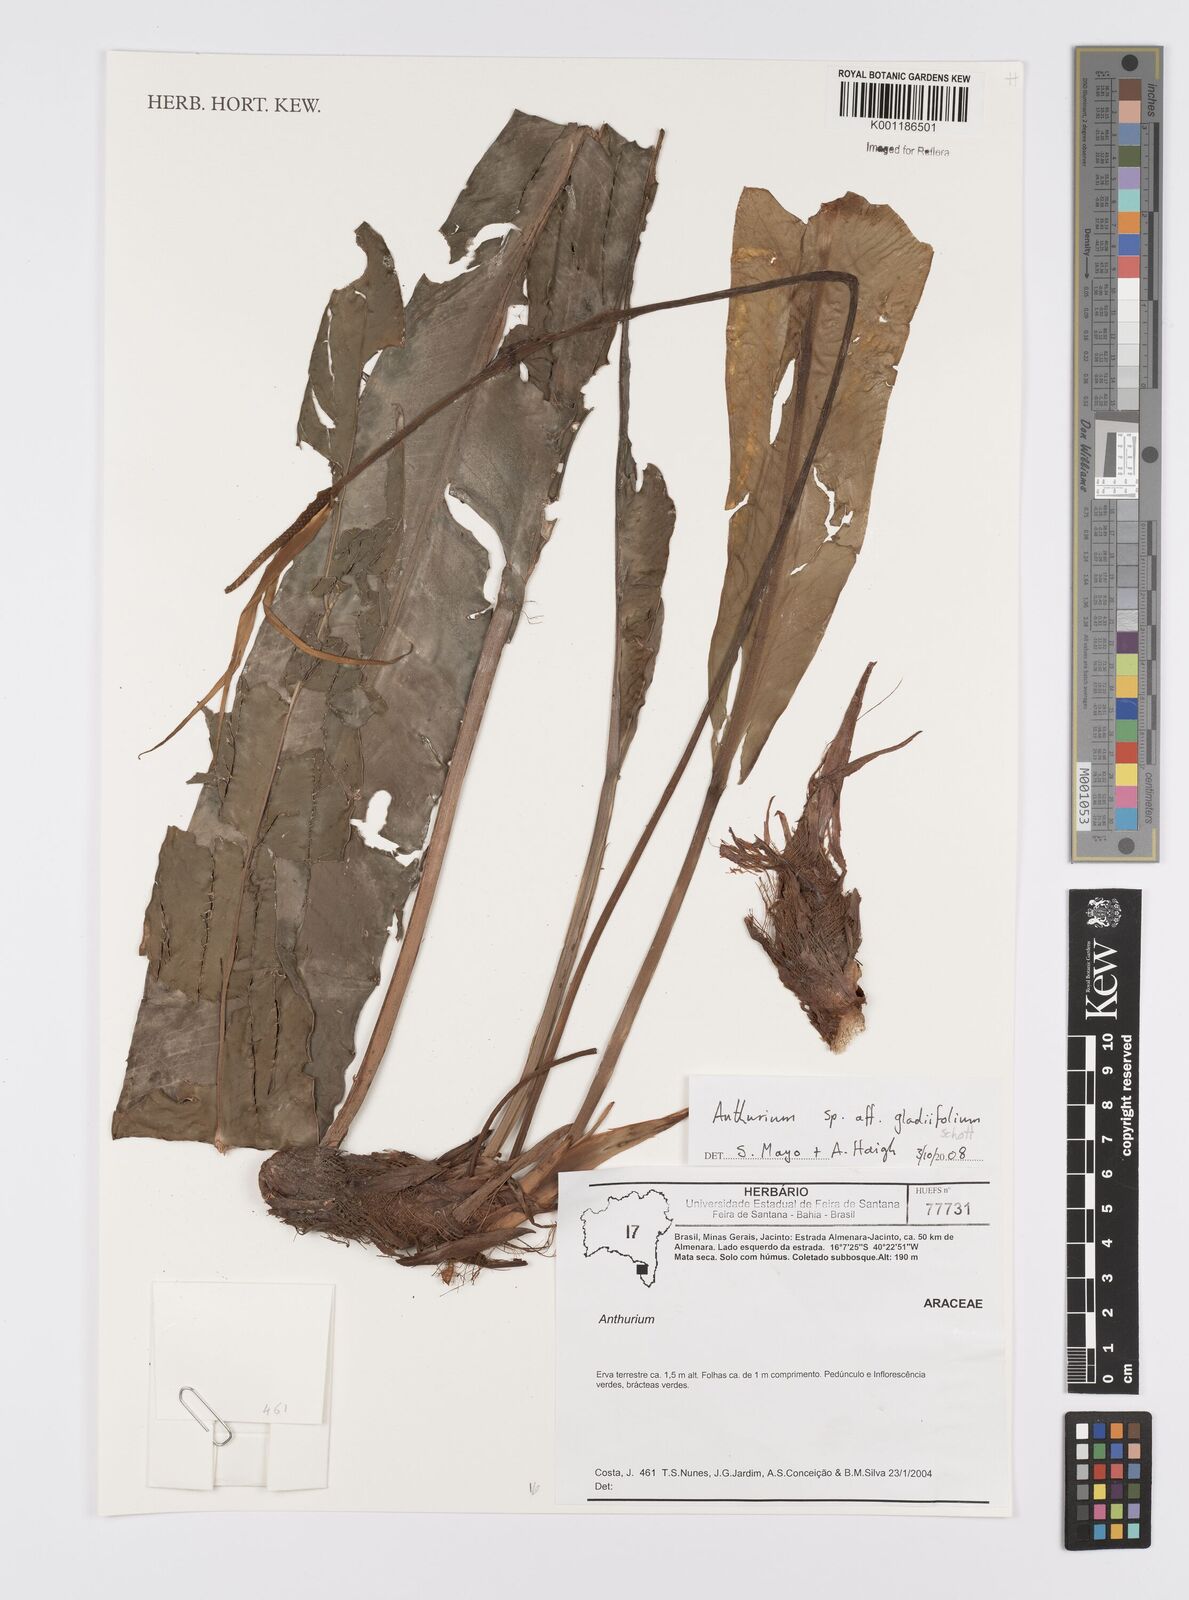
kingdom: Plantae
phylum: Tracheophyta
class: Liliopsida
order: Alismatales
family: Araceae
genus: Anthurium
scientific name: Anthurium gladiifolium
